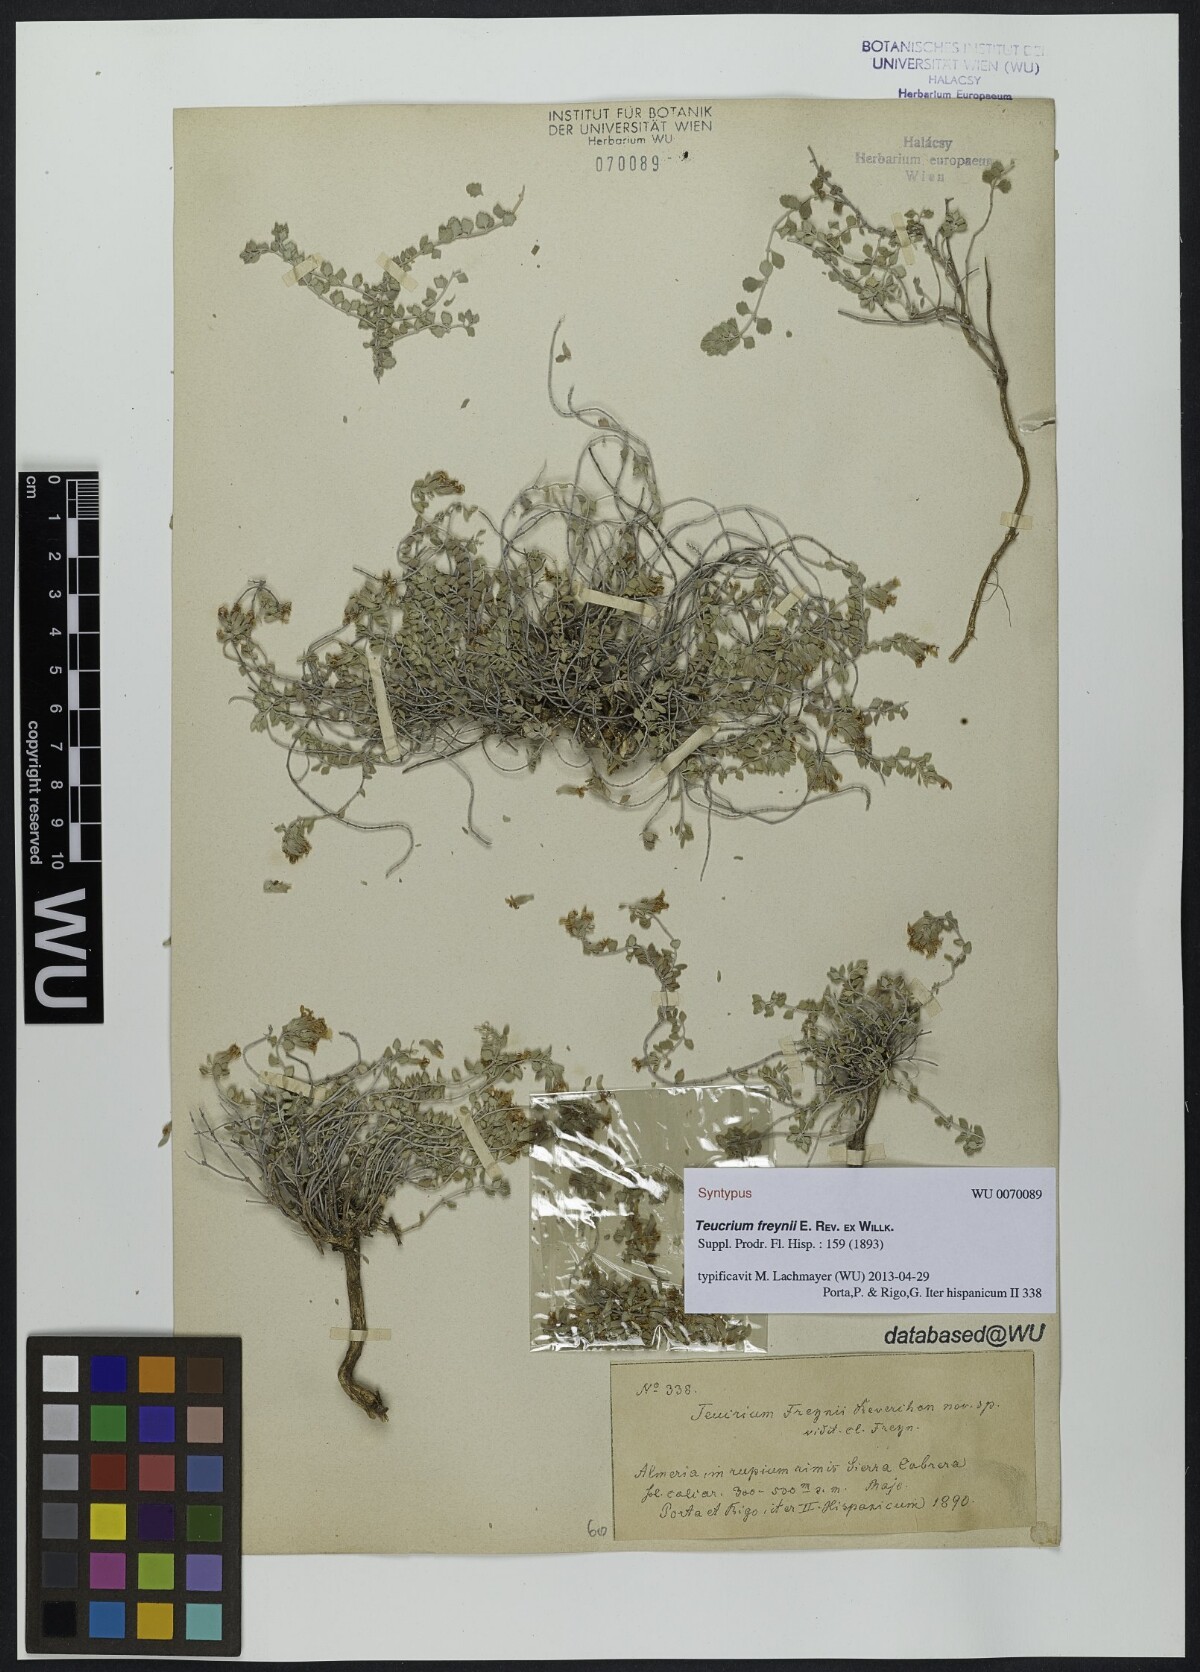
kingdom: Plantae
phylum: Tracheophyta
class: Magnoliopsida
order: Lamiales
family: Lamiaceae
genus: Teucrium
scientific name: Teucrium freynii
